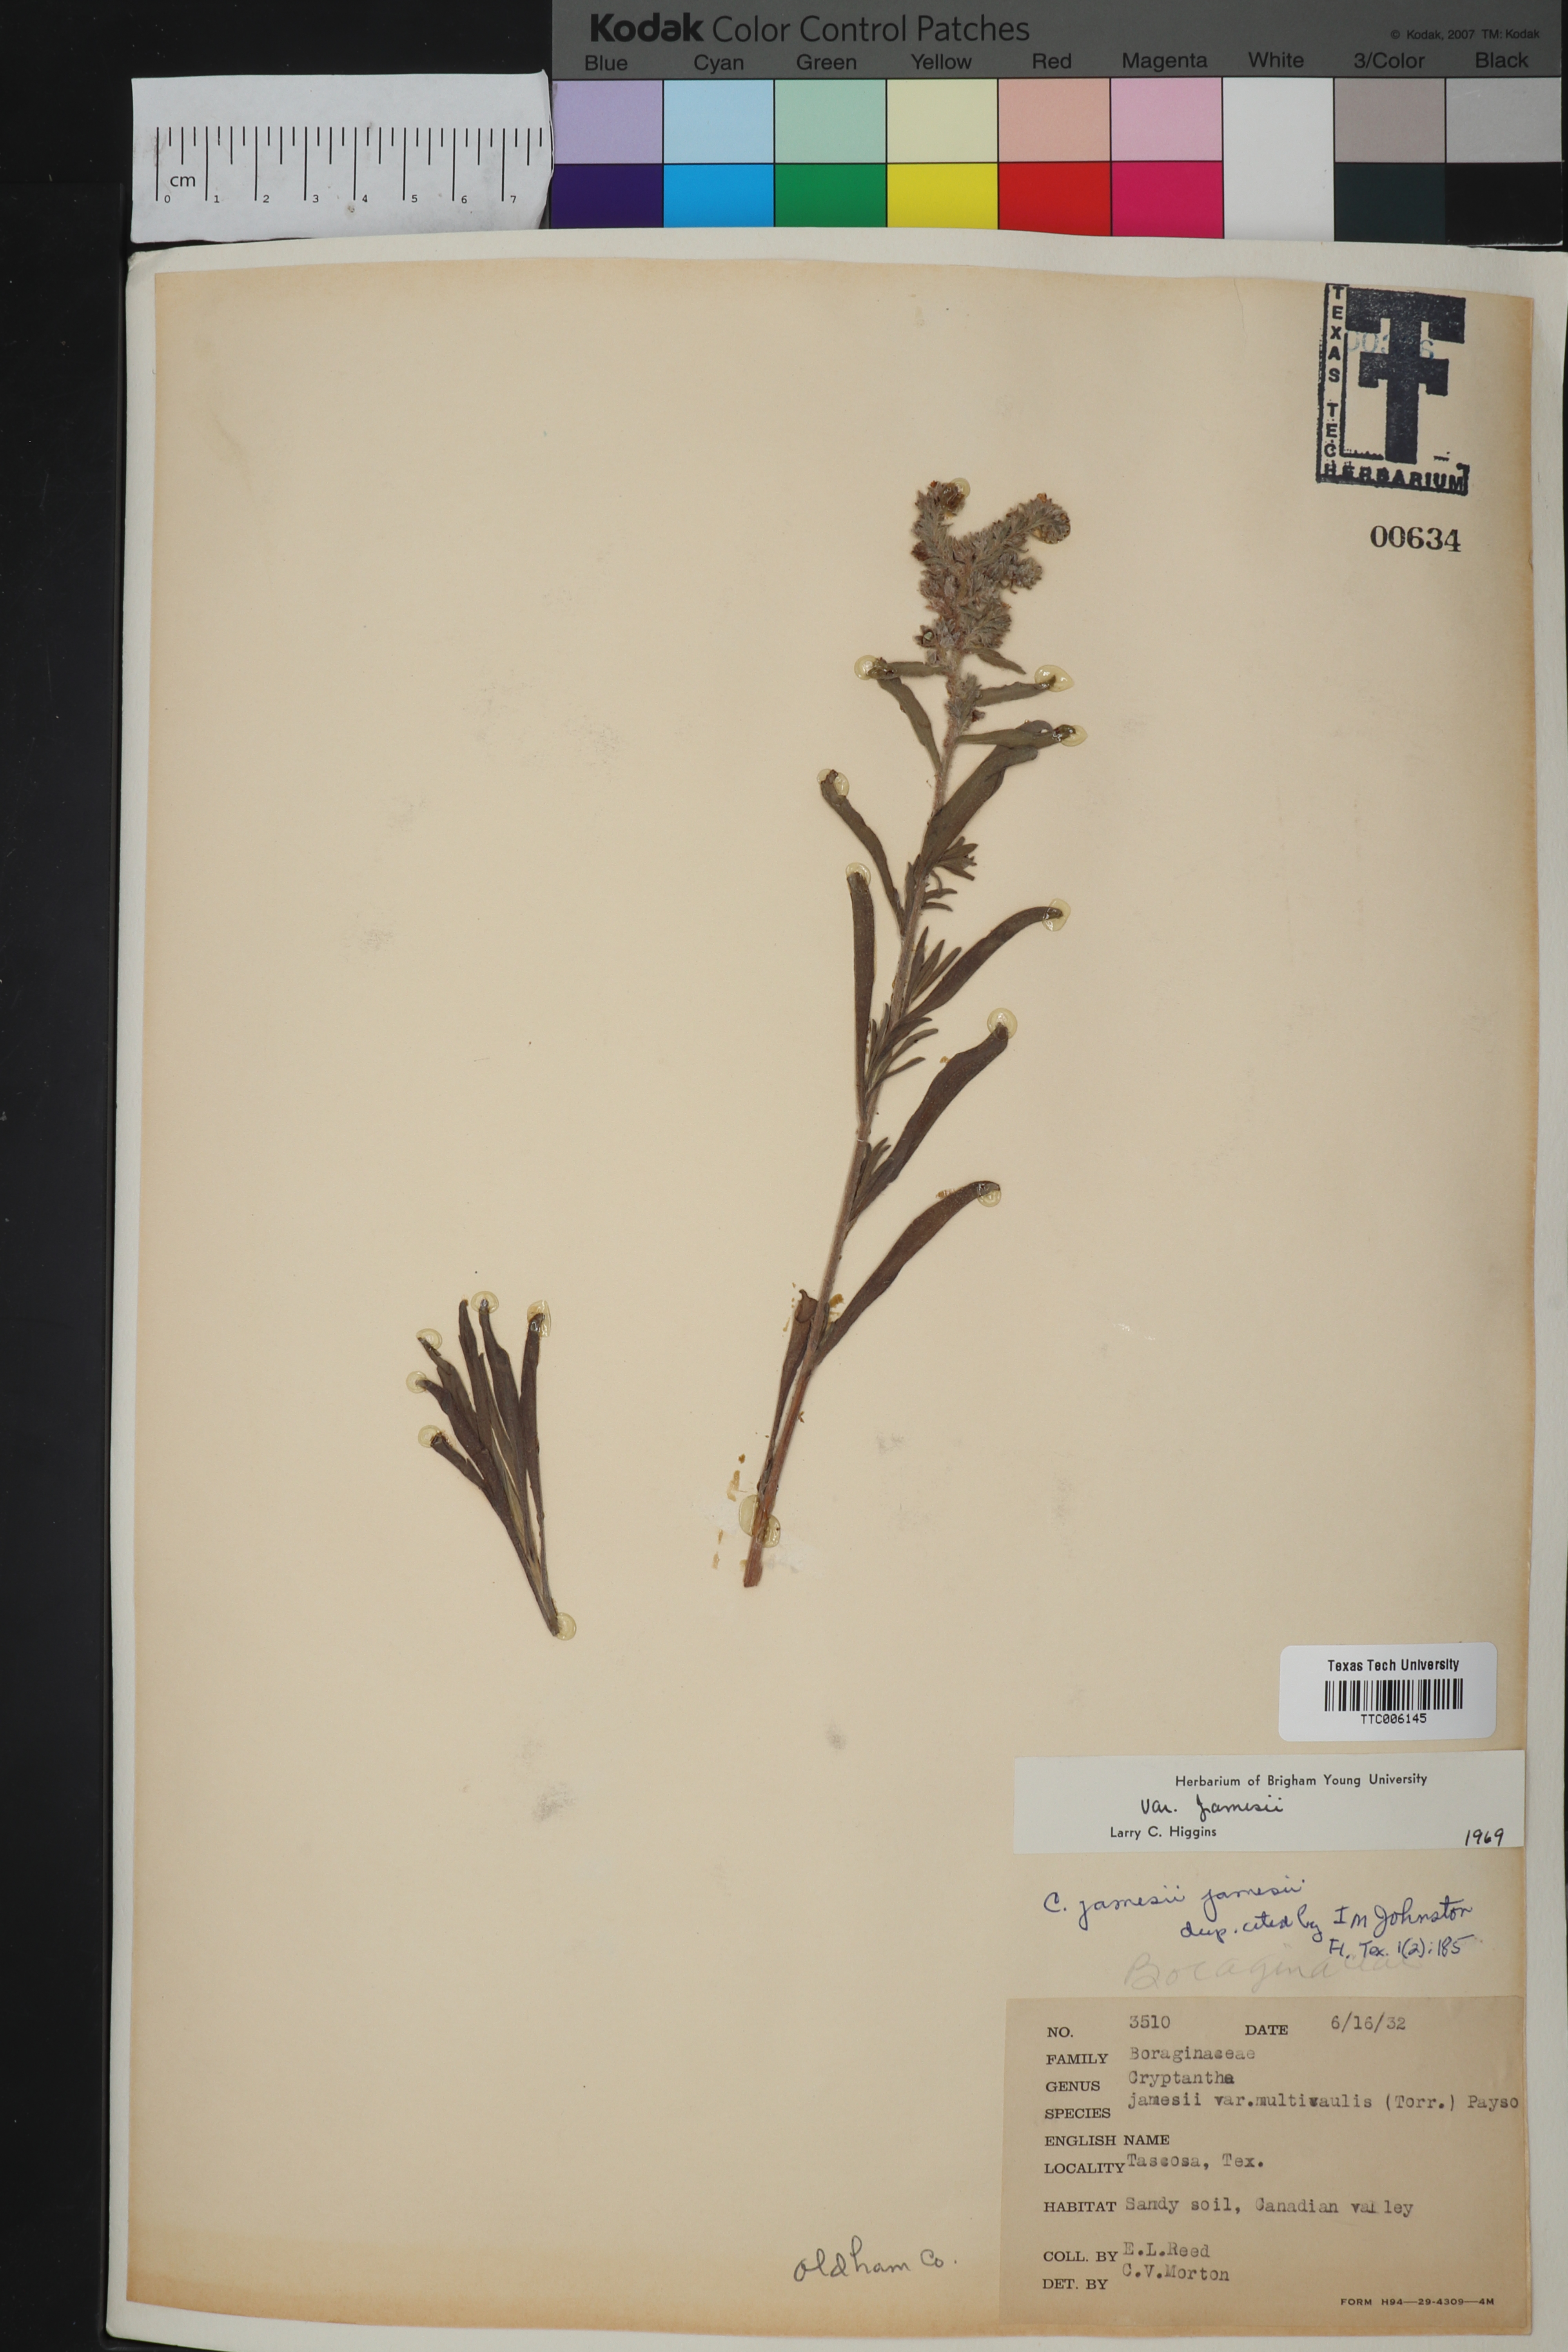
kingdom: Plantae
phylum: Tracheophyta
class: Magnoliopsida
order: Boraginales
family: Boraginaceae
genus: Oreocarya
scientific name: Oreocarya suffruticosa
